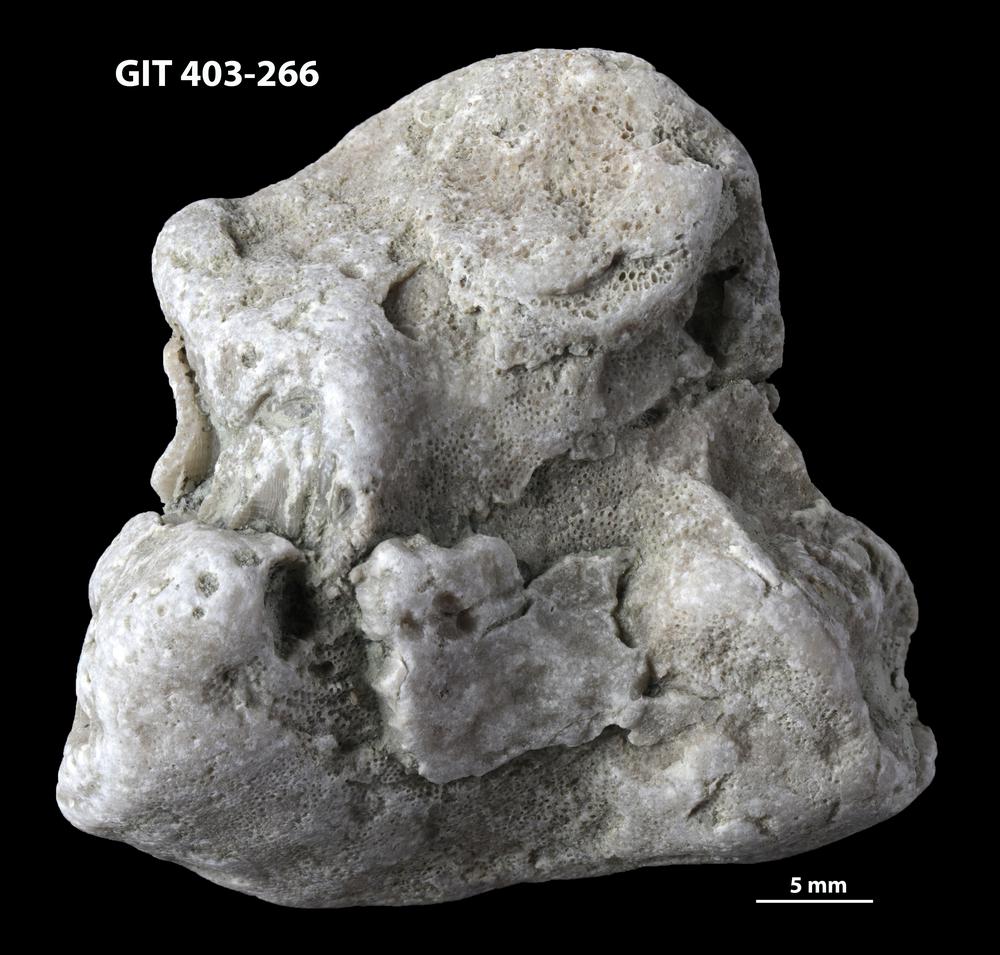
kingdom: Animalia
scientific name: Animalia
